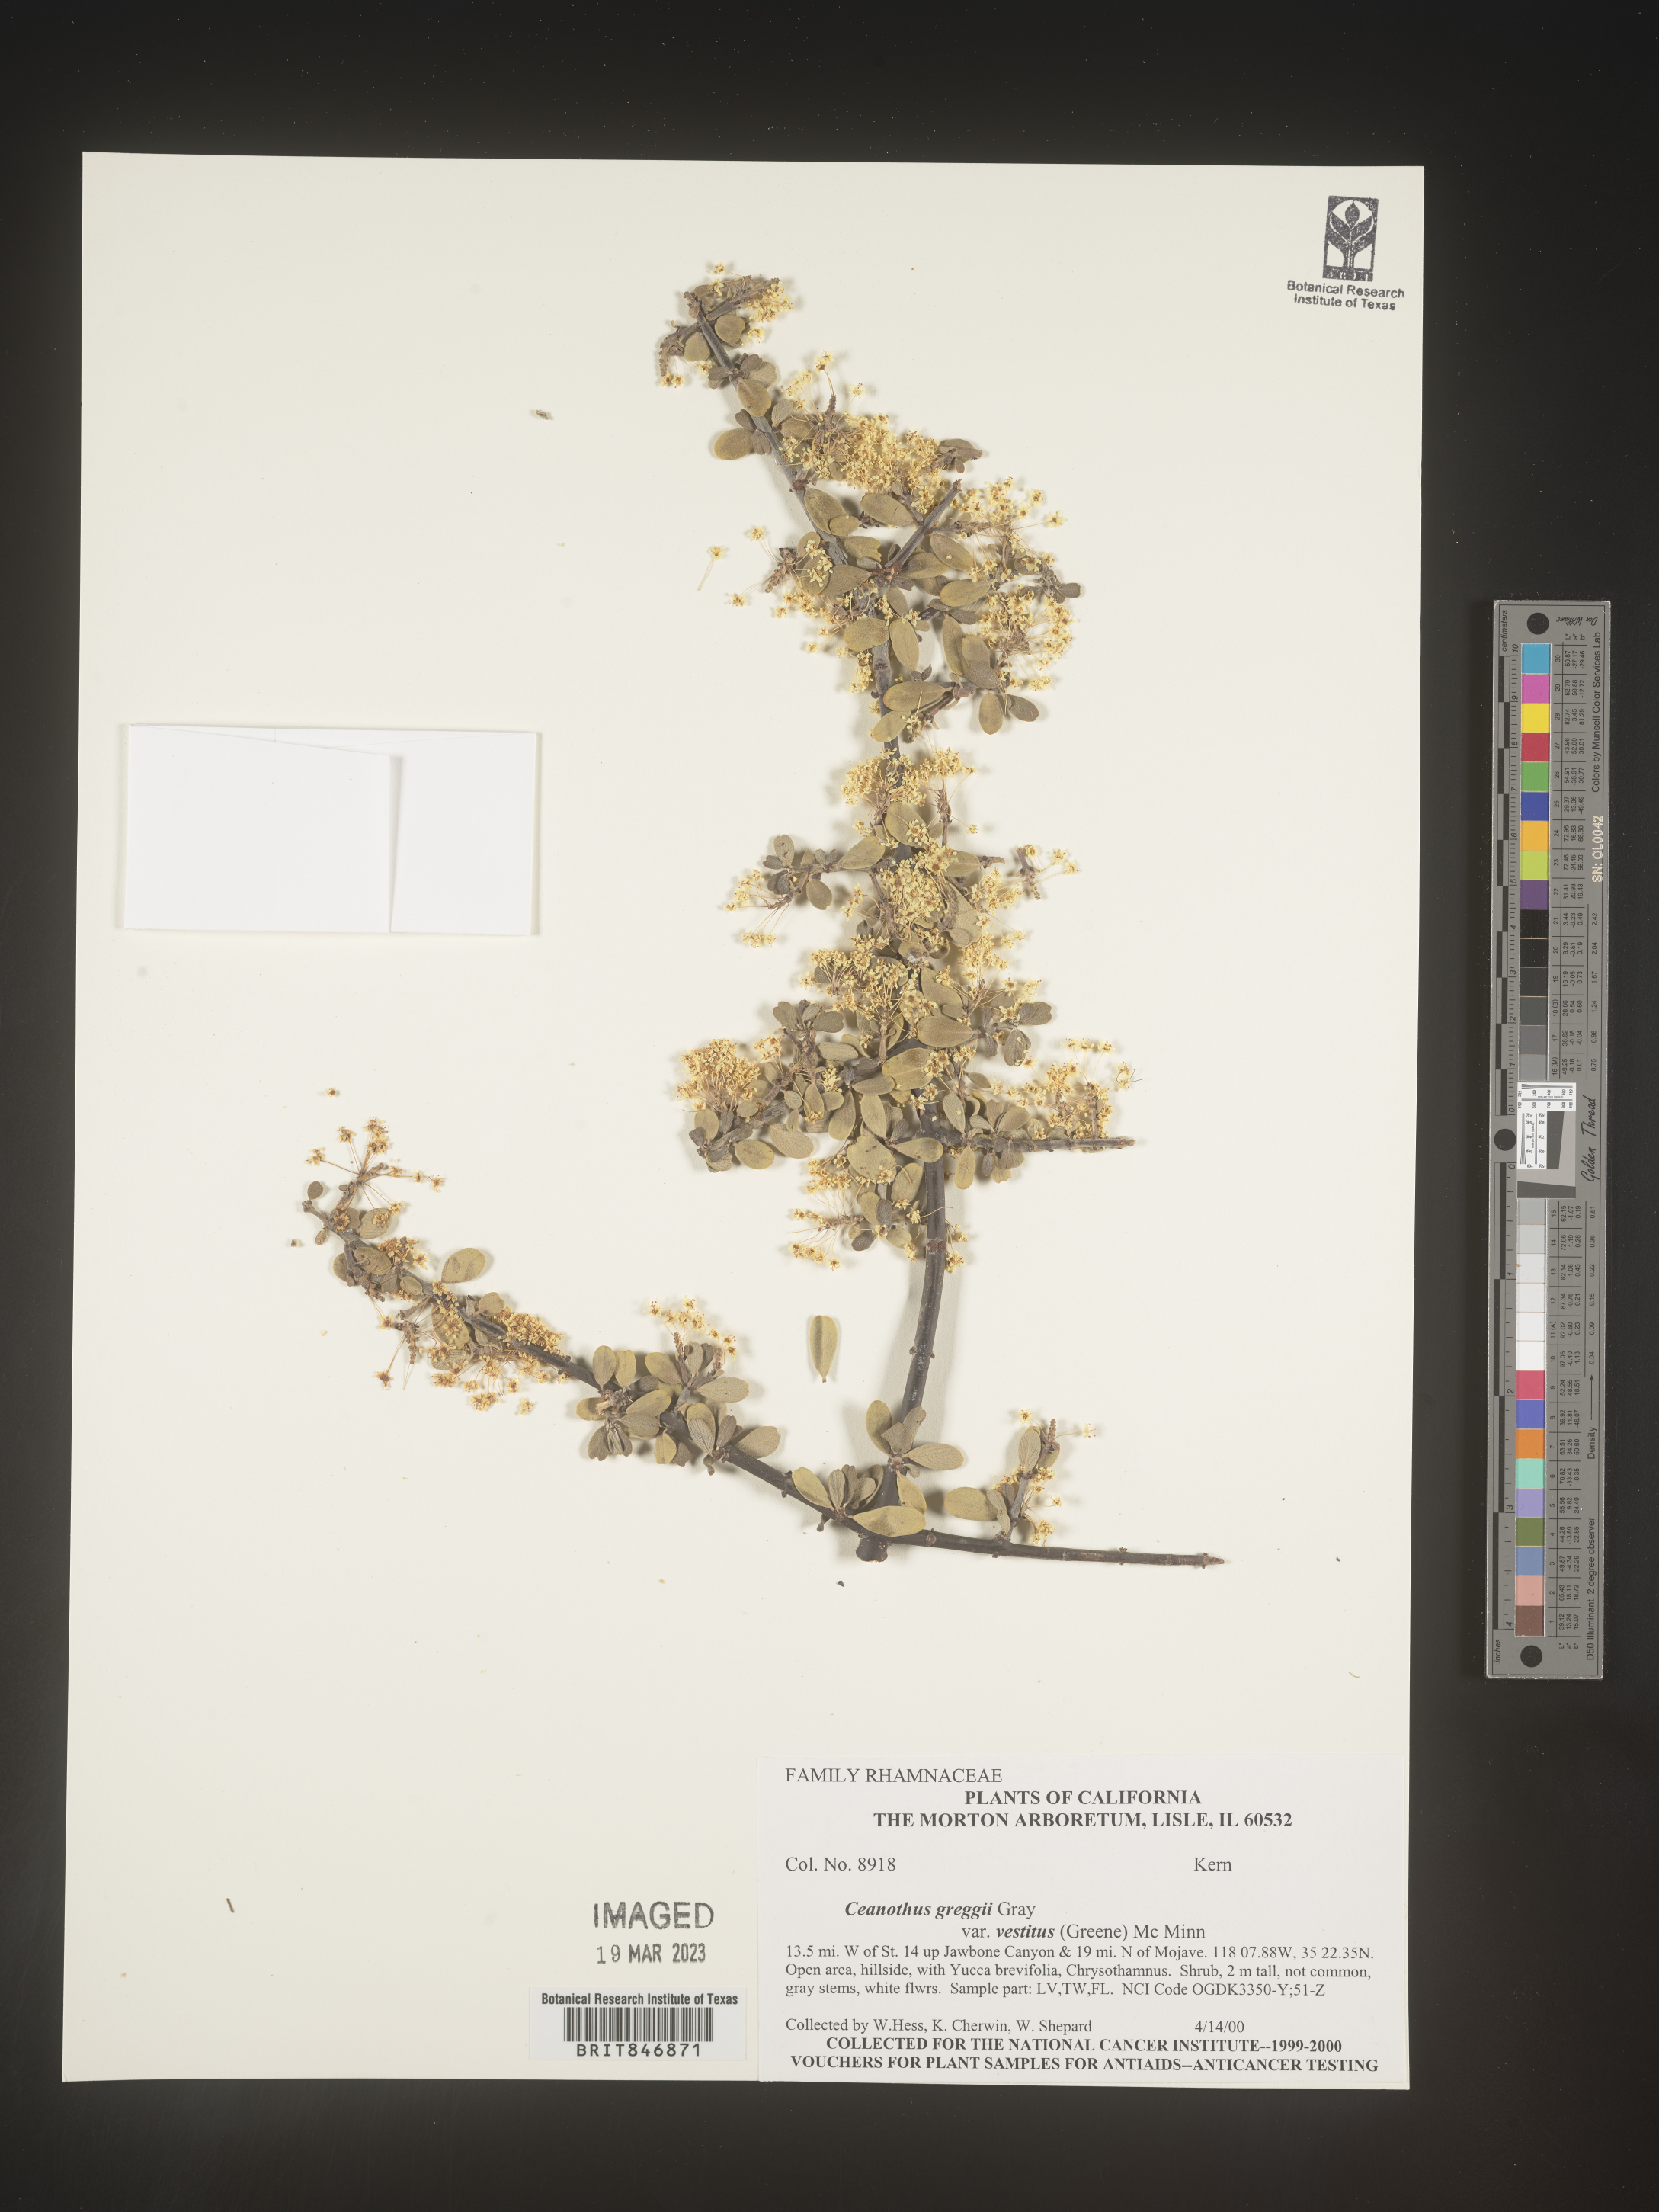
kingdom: Plantae
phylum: Tracheophyta
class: Magnoliopsida
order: Rosales
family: Rhamnaceae
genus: Ceanothus
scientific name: Ceanothus
